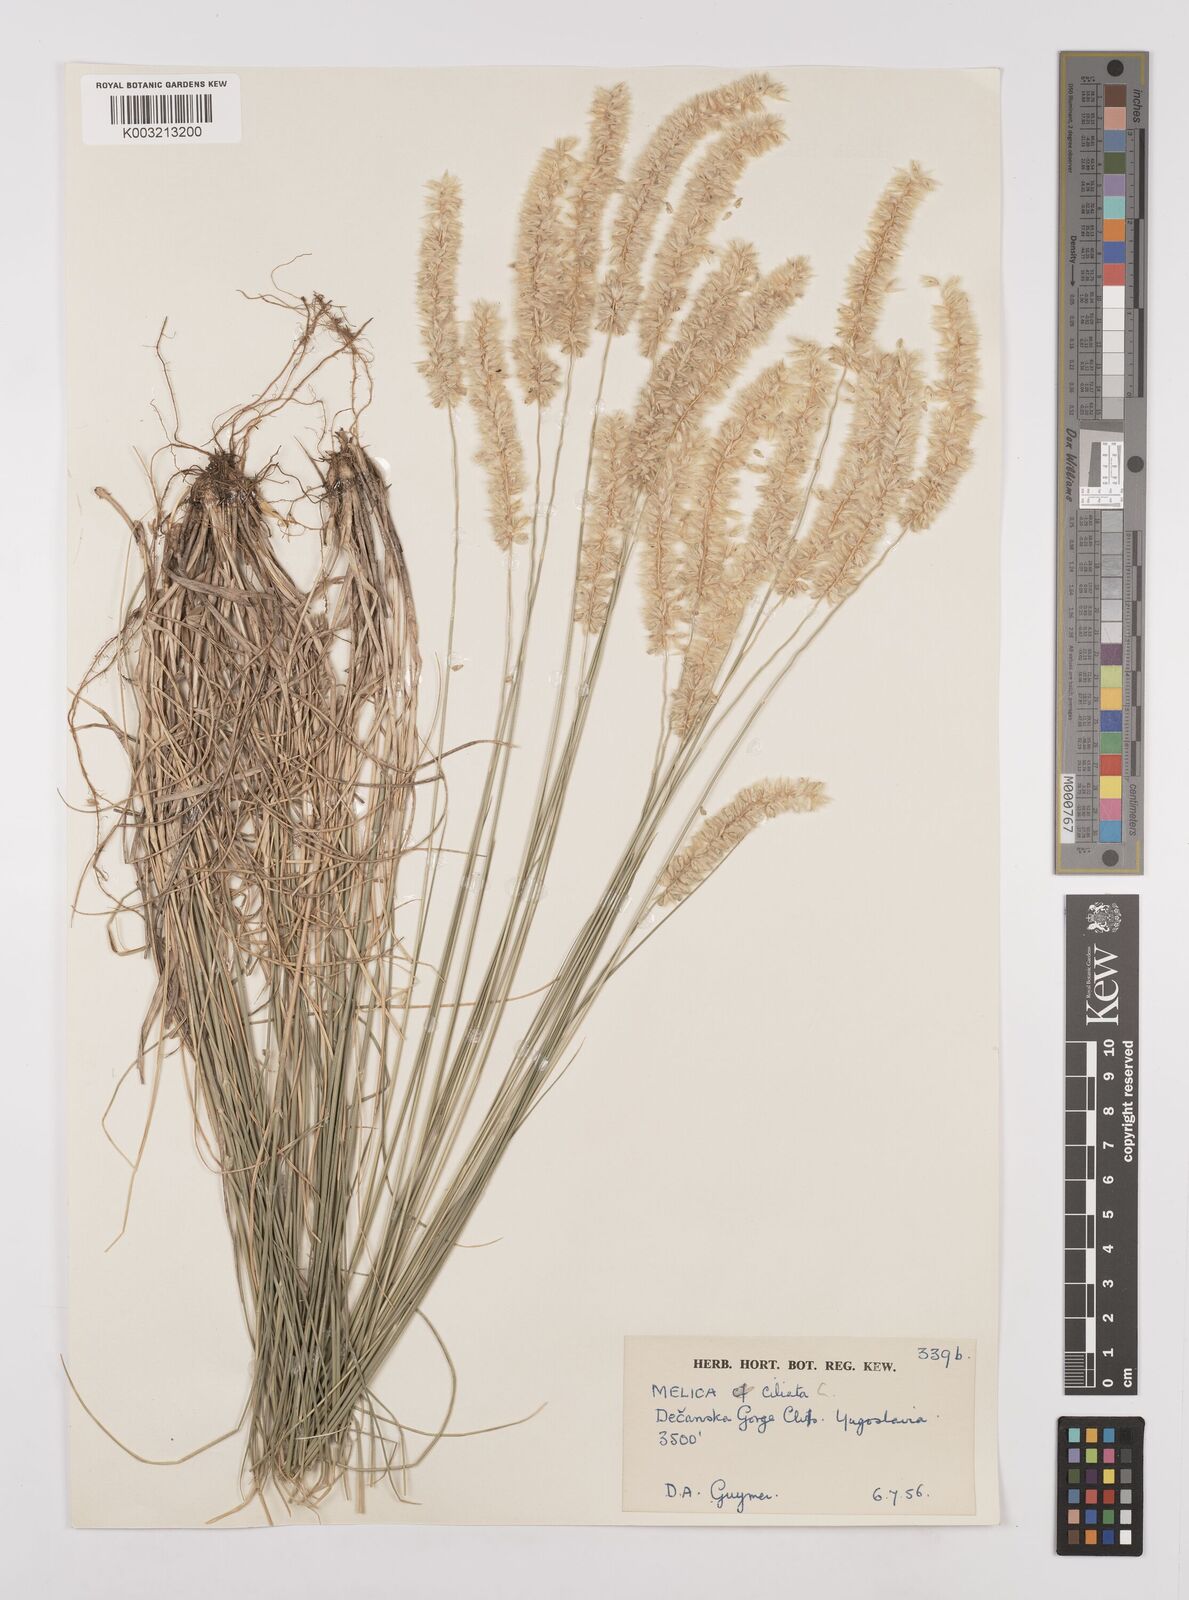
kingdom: Plantae
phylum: Tracheophyta
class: Liliopsida
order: Poales
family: Poaceae
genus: Melica
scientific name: Melica ciliata
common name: Hairy melicgrass
